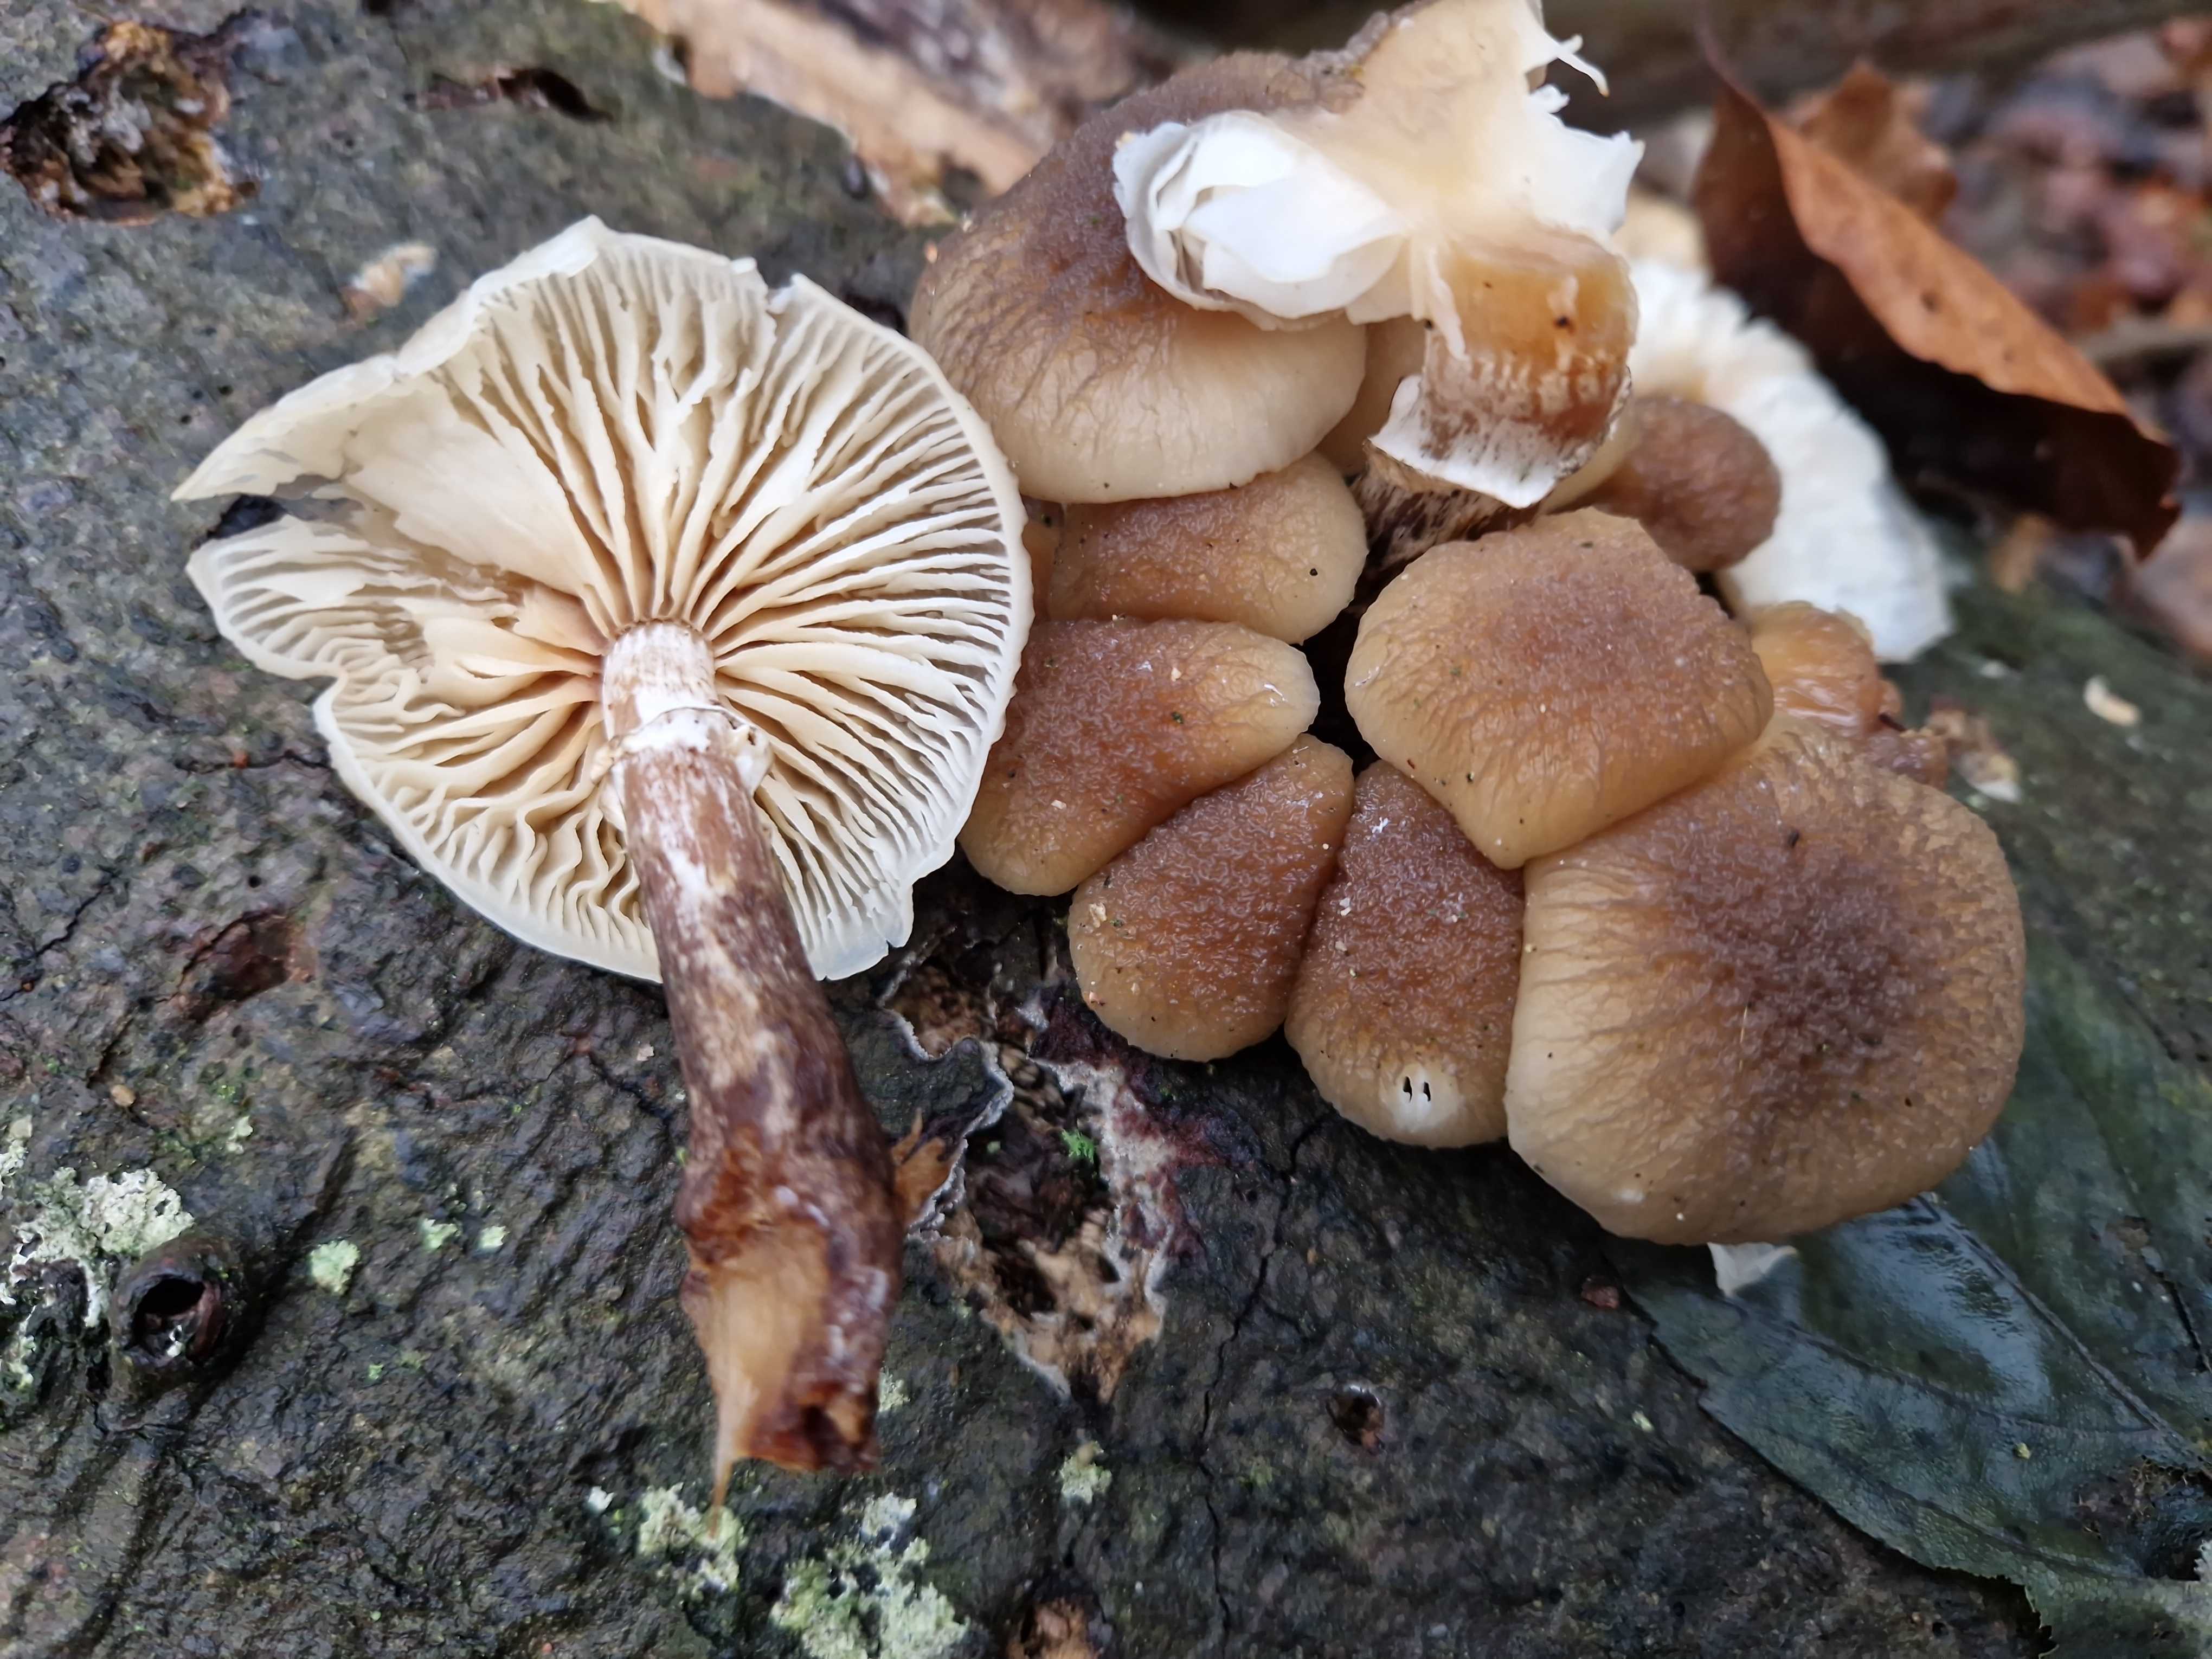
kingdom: Fungi
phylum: Basidiomycota
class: Agaricomycetes
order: Agaricales
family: Physalacriaceae
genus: Mucidula
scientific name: Mucidula mucida
